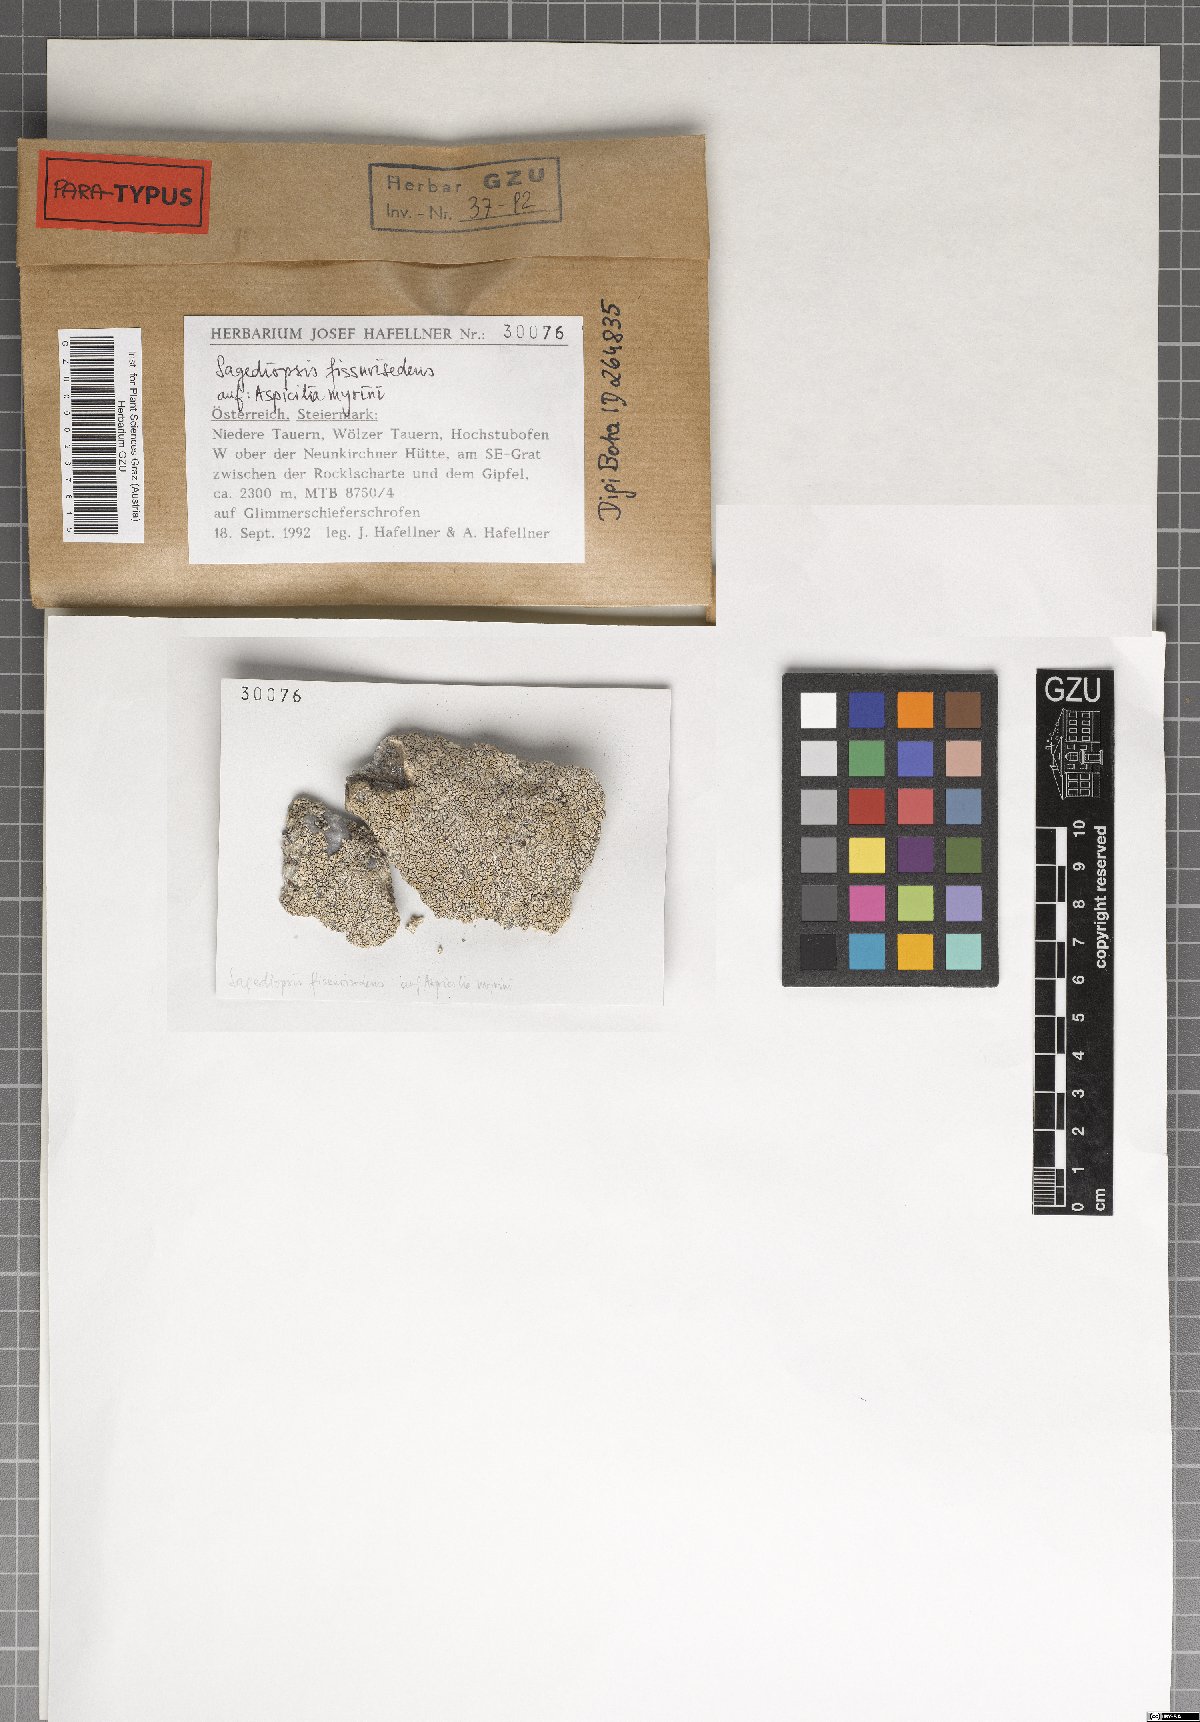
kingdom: Fungi
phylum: Ascomycota
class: Eurotiomycetes
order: Verrucariales
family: Adelococcaceae
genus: Sagediopsis
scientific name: Sagediopsis fissurisedens
